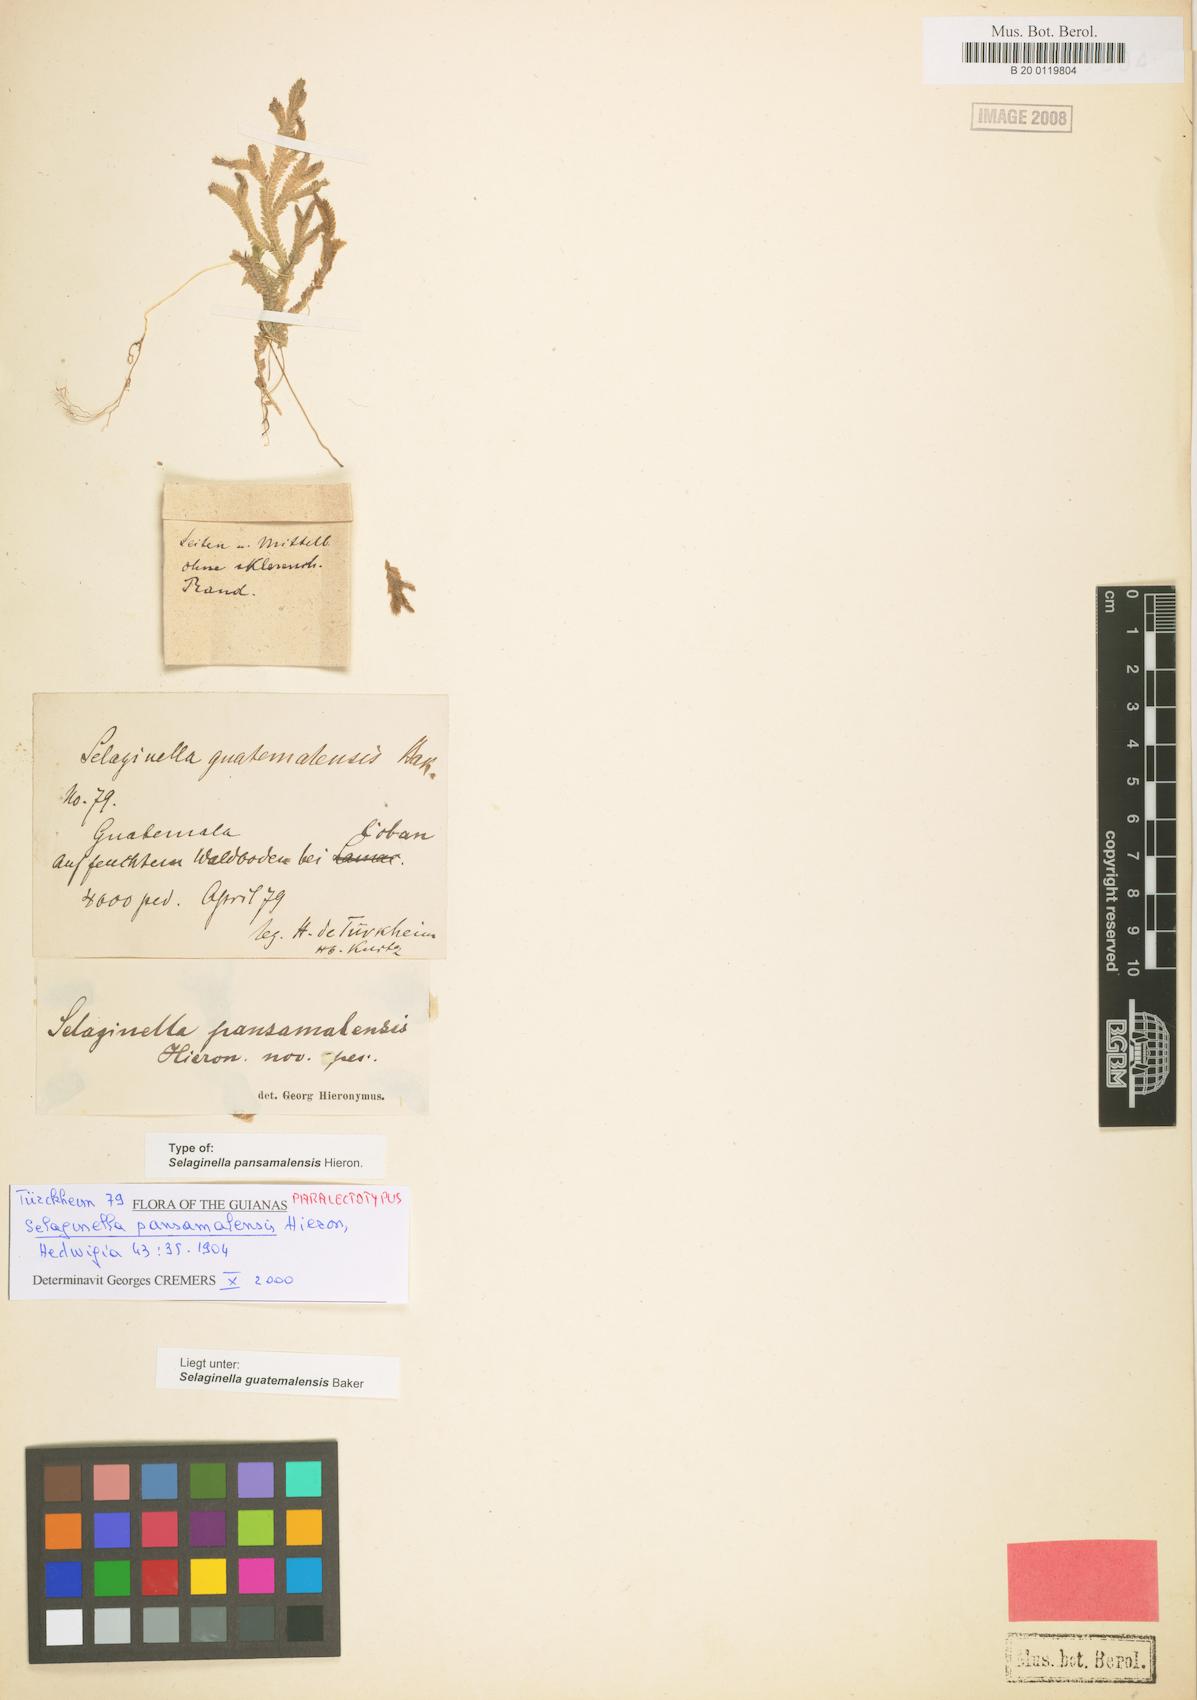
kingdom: Plantae
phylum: Tracheophyta
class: Lycopodiopsida
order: Selaginellales
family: Selaginellaceae
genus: Selaginella
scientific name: Selaginella guatemalensis
